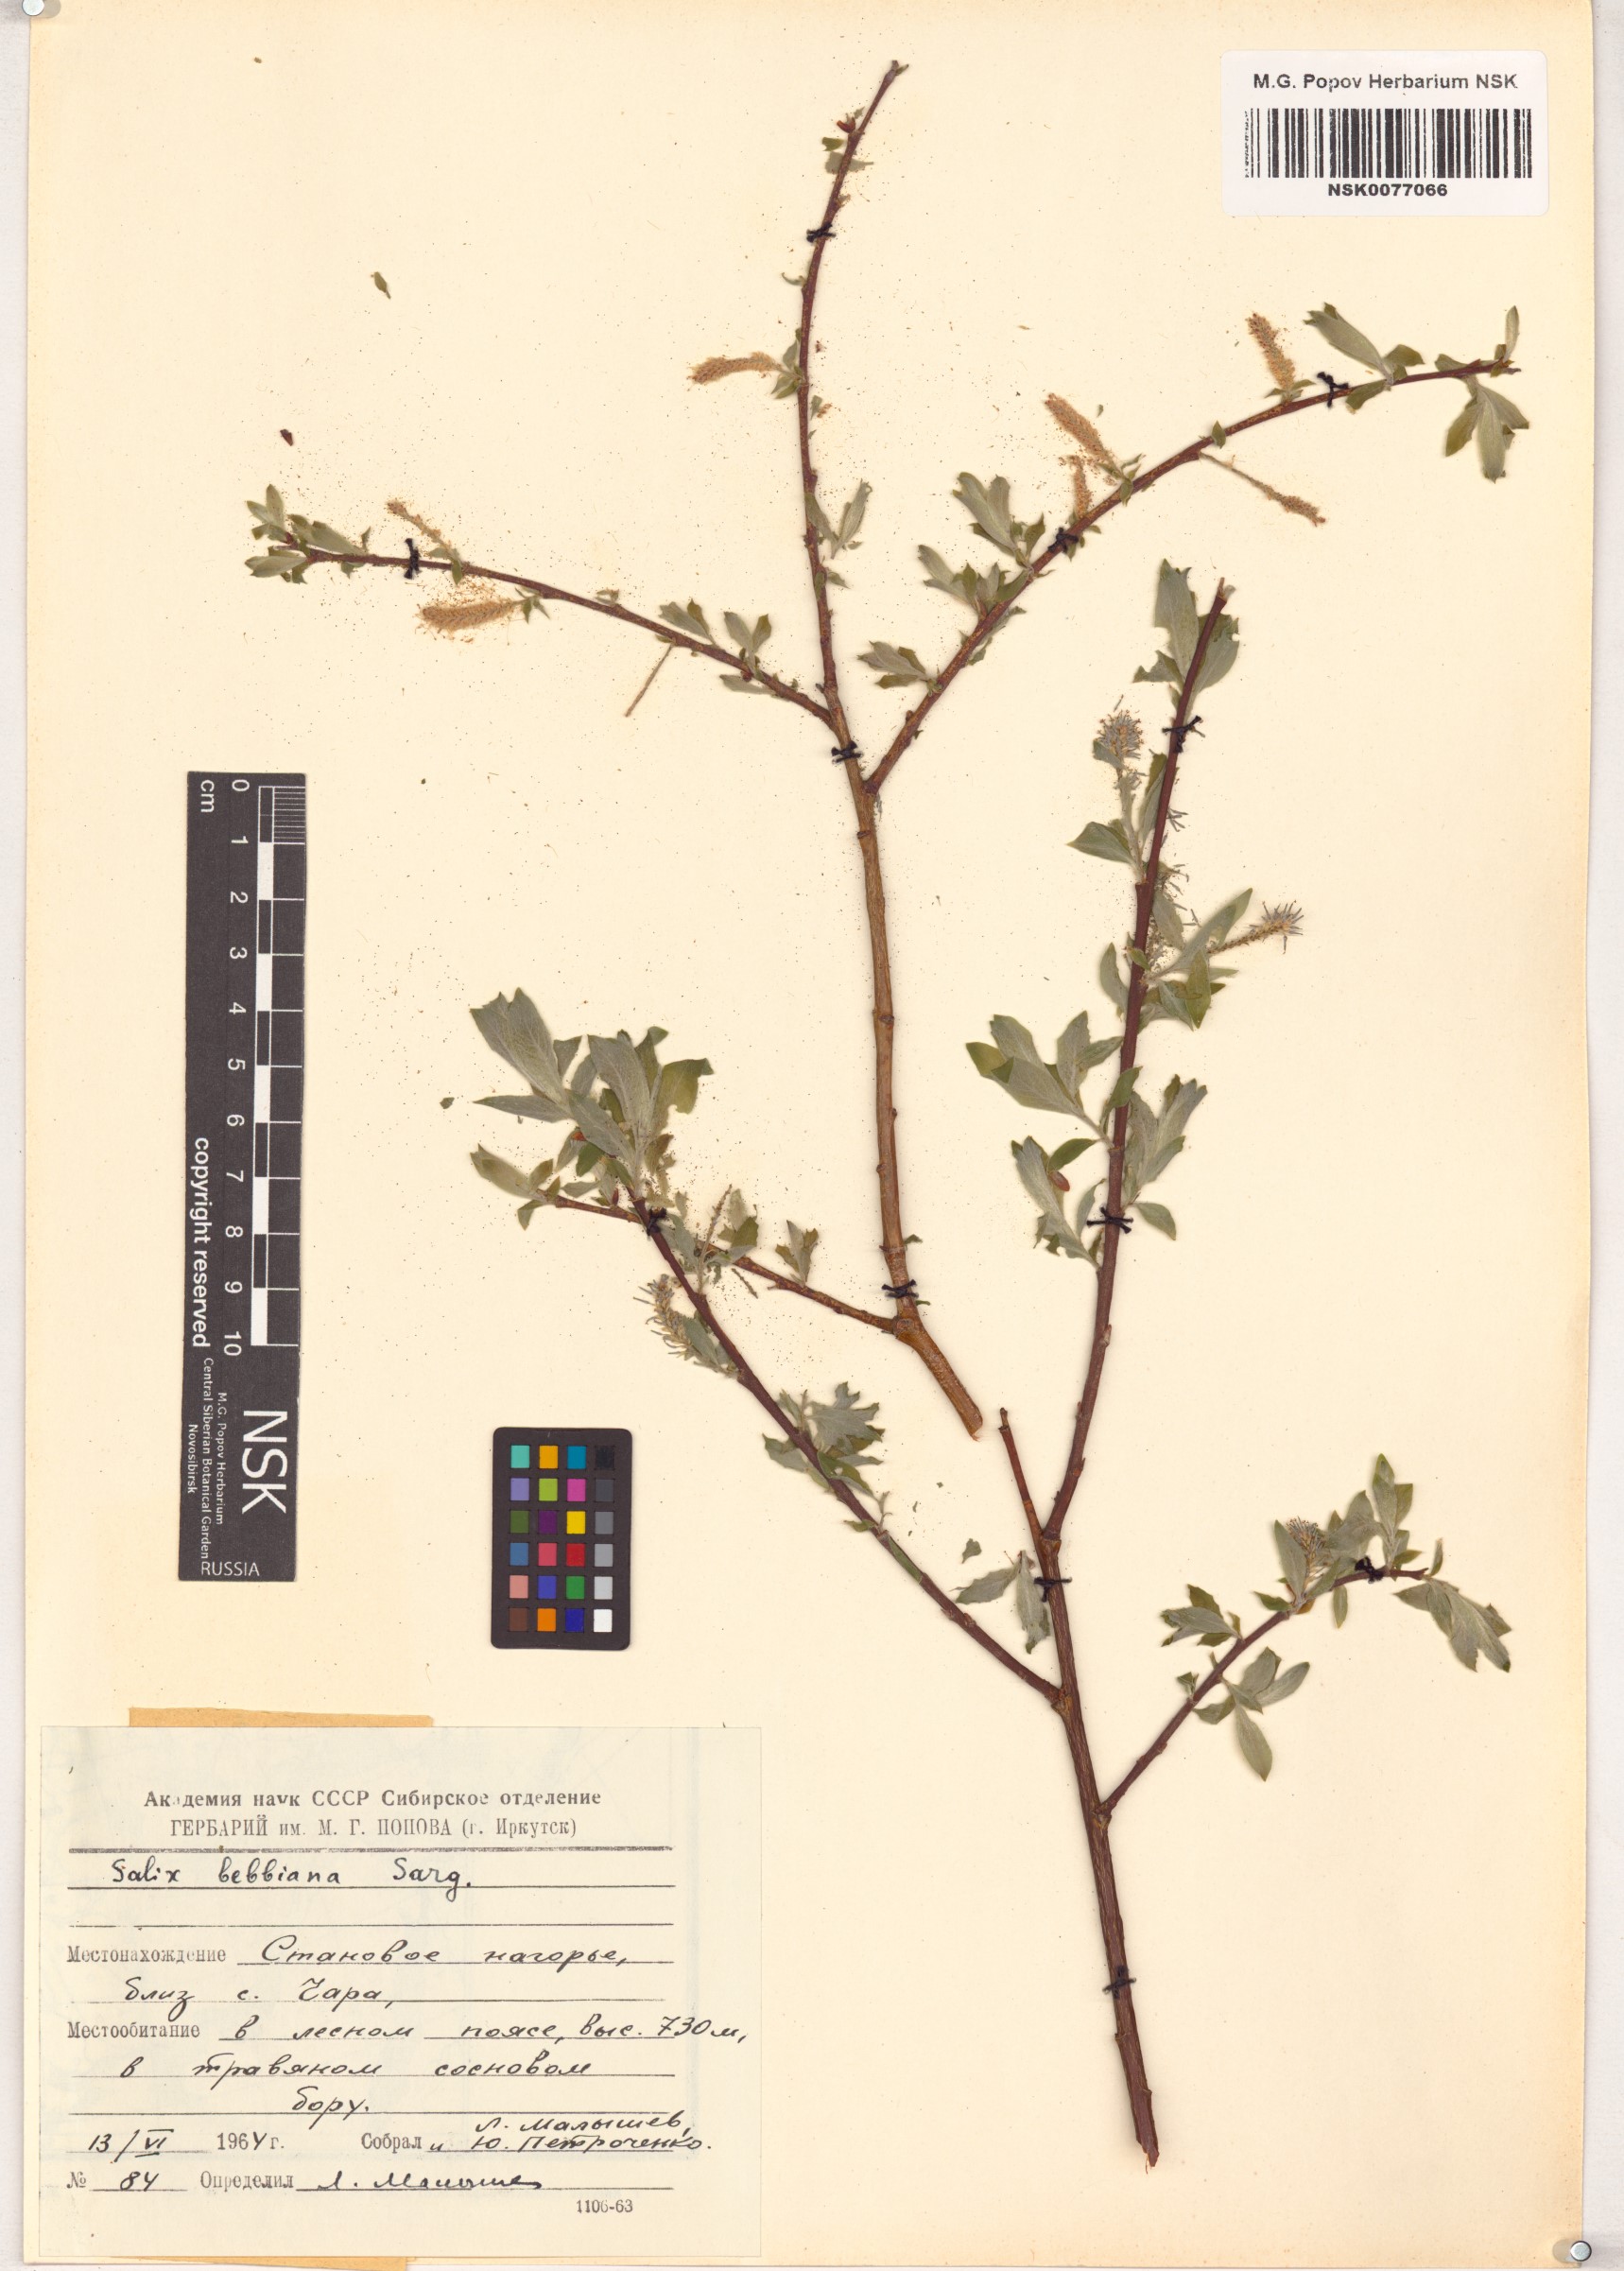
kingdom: Plantae
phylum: Tracheophyta
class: Magnoliopsida
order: Malpighiales
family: Salicaceae
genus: Salix
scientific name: Salix bebbiana
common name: Bebb's willow
